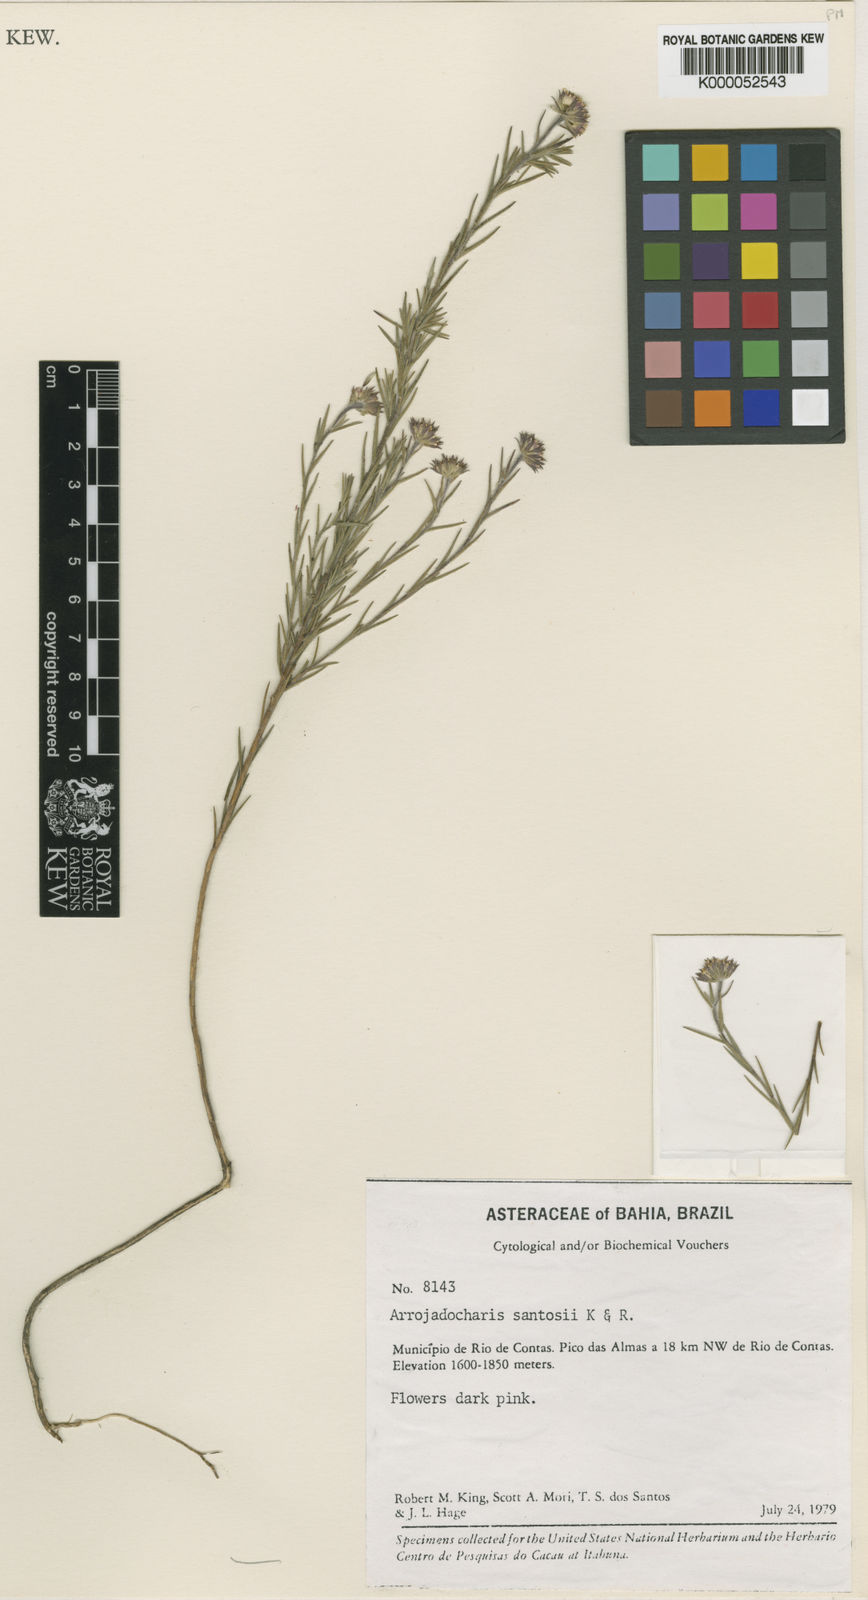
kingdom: Plantae
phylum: Tracheophyta
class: Magnoliopsida
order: Asterales
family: Asteraceae
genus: Arrojadocharis
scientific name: Arrojadocharis santosii
